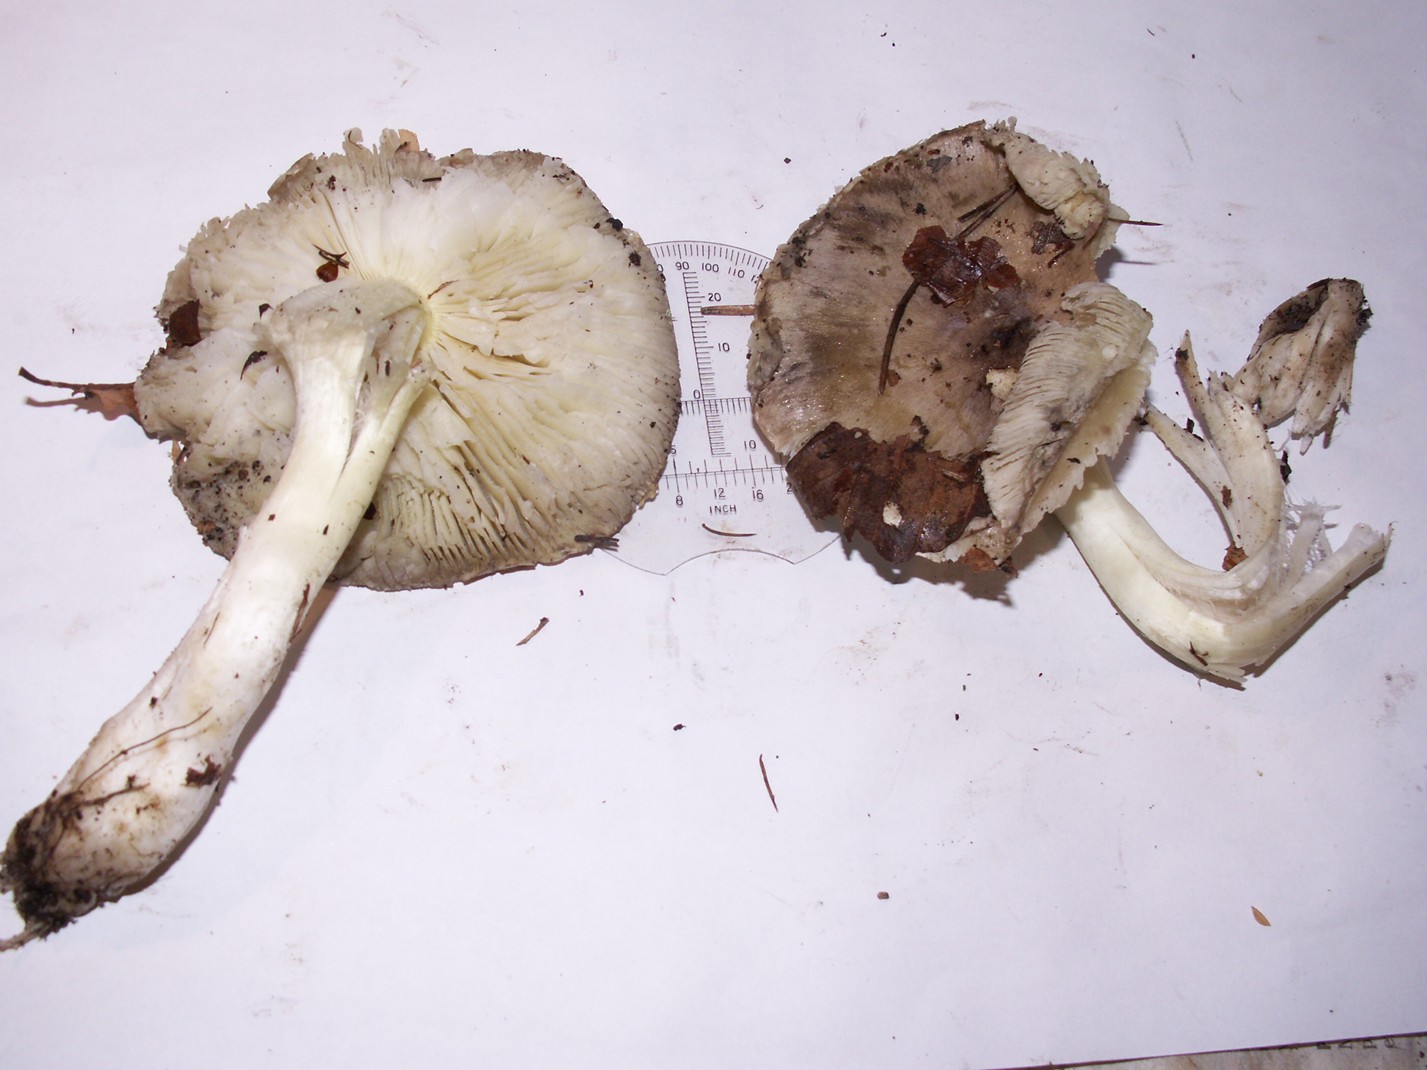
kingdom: Fungi
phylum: Basidiomycota
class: Agaricomycetes
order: Agaricales
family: Tricholomataceae
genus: Tricholoma
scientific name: Tricholoma portentosum
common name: grå ridderhat
